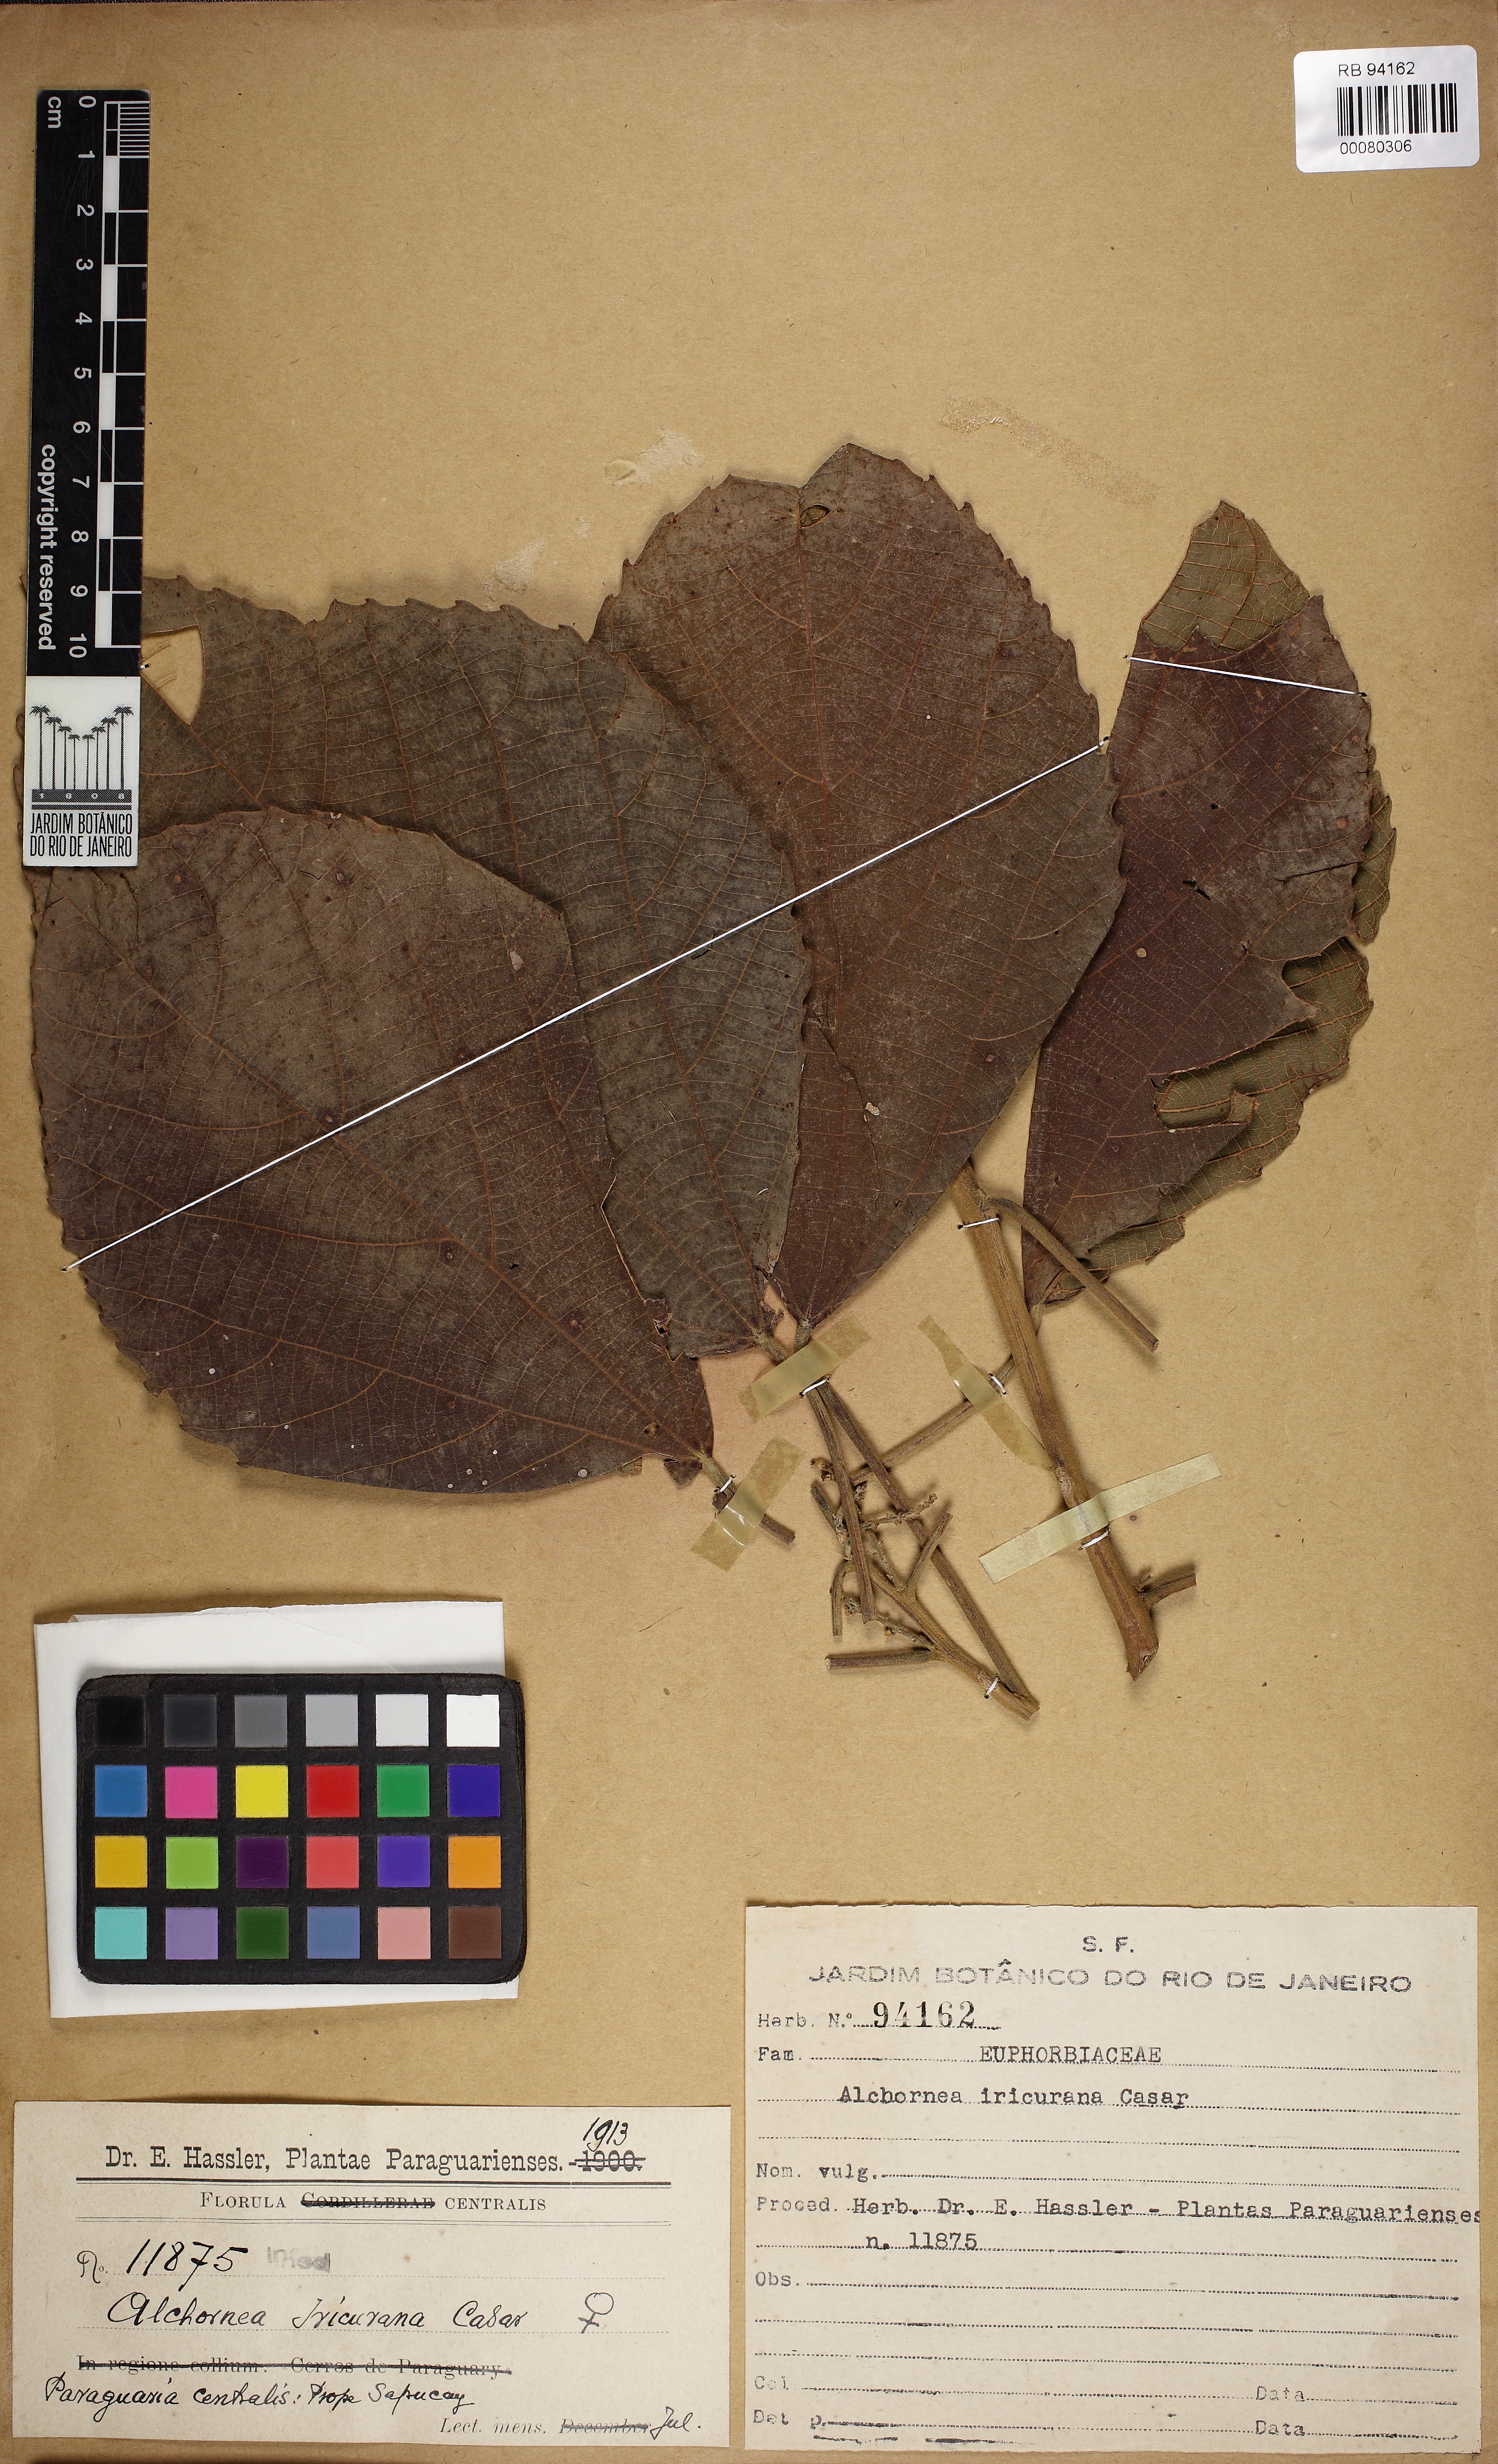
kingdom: Plantae
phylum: Tracheophyta
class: Magnoliopsida
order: Malpighiales
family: Euphorbiaceae
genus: Alchornea
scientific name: Alchornea glandulosa
